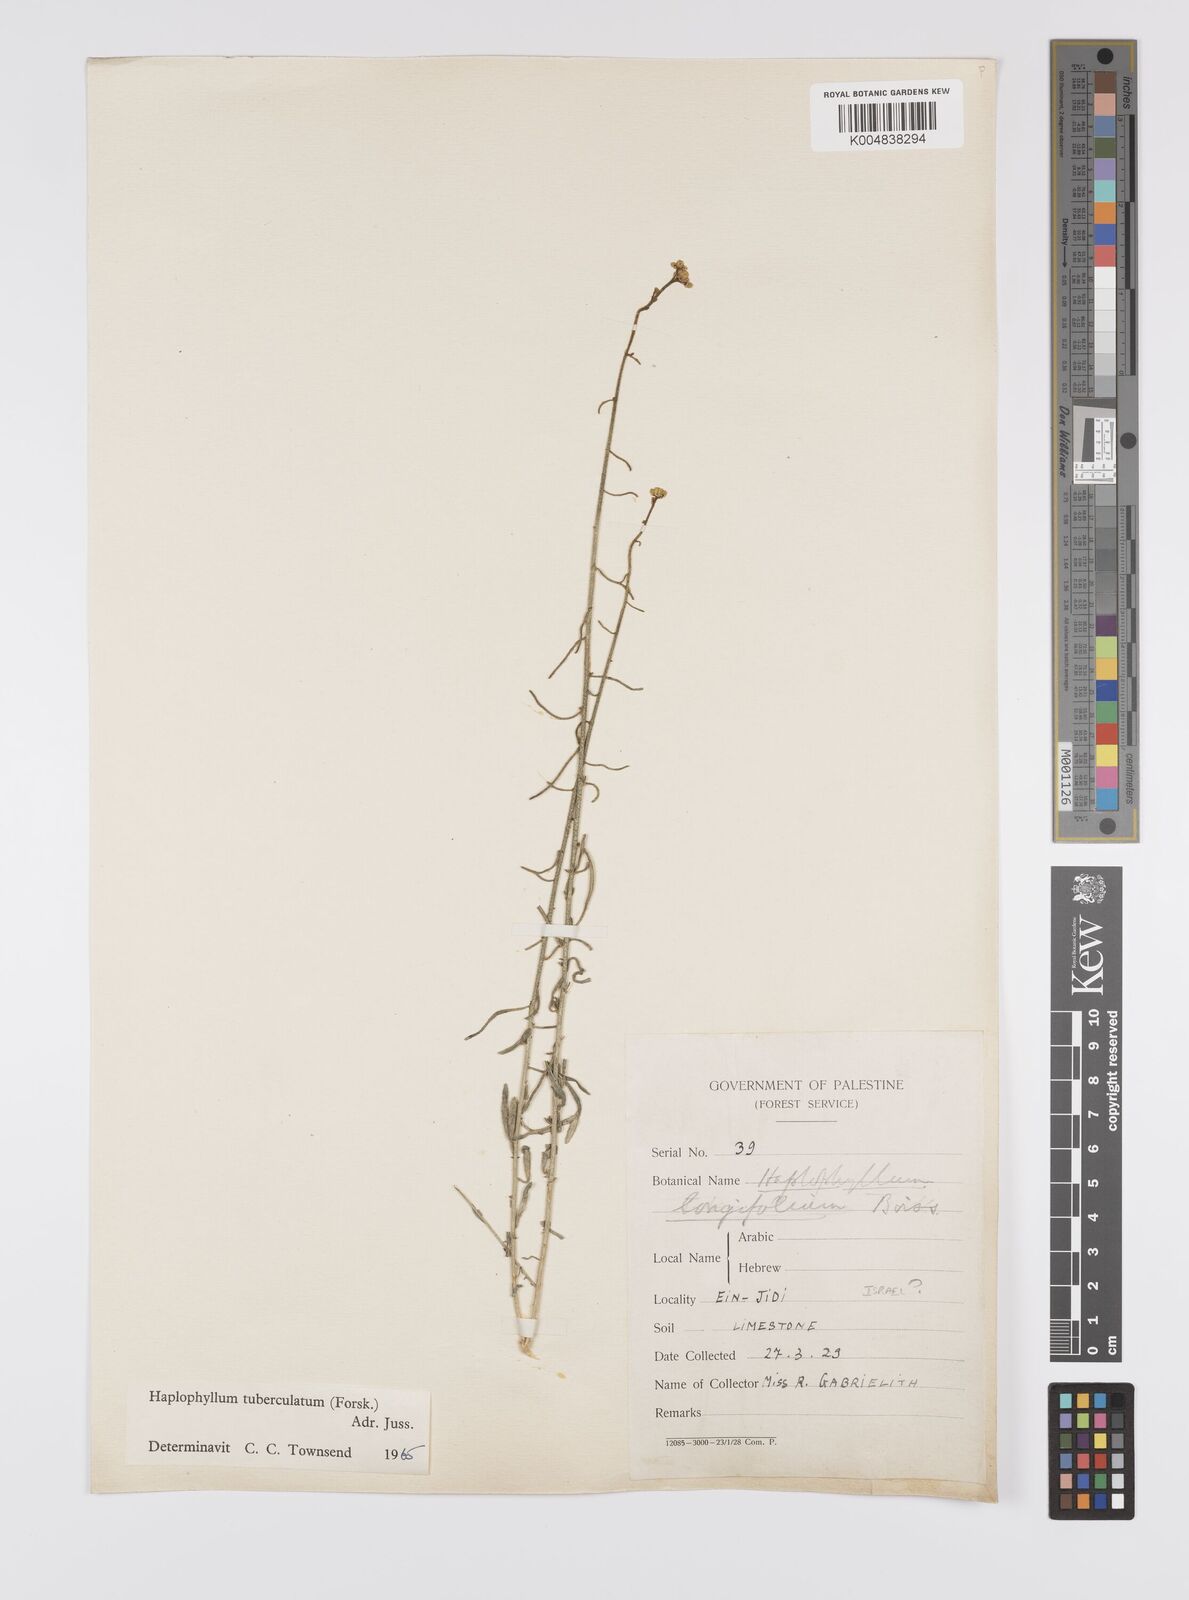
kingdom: Plantae
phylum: Tracheophyta
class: Magnoliopsida
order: Sapindales
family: Rutaceae
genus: Haplophyllum
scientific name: Haplophyllum tuberculatum
